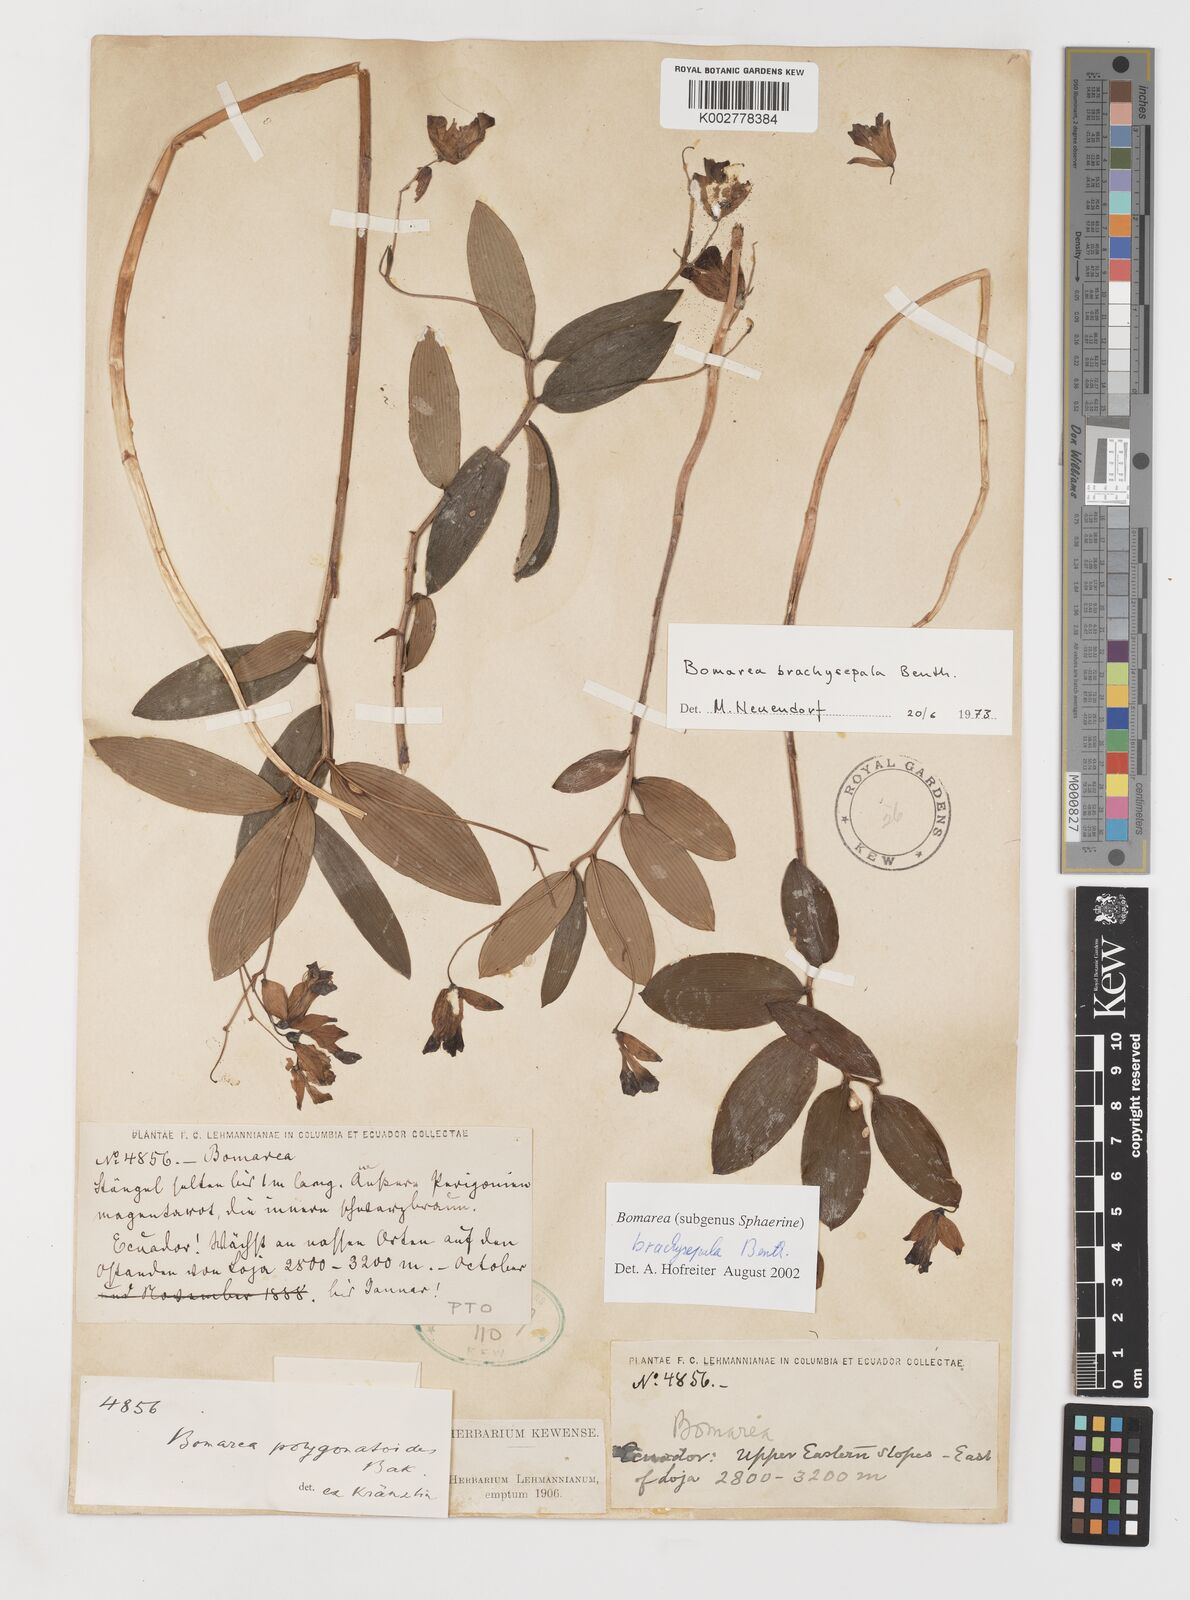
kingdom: Plantae
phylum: Tracheophyta
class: Liliopsida
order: Liliales
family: Alstroemeriaceae
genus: Bomarea
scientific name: Bomarea brachysepala
